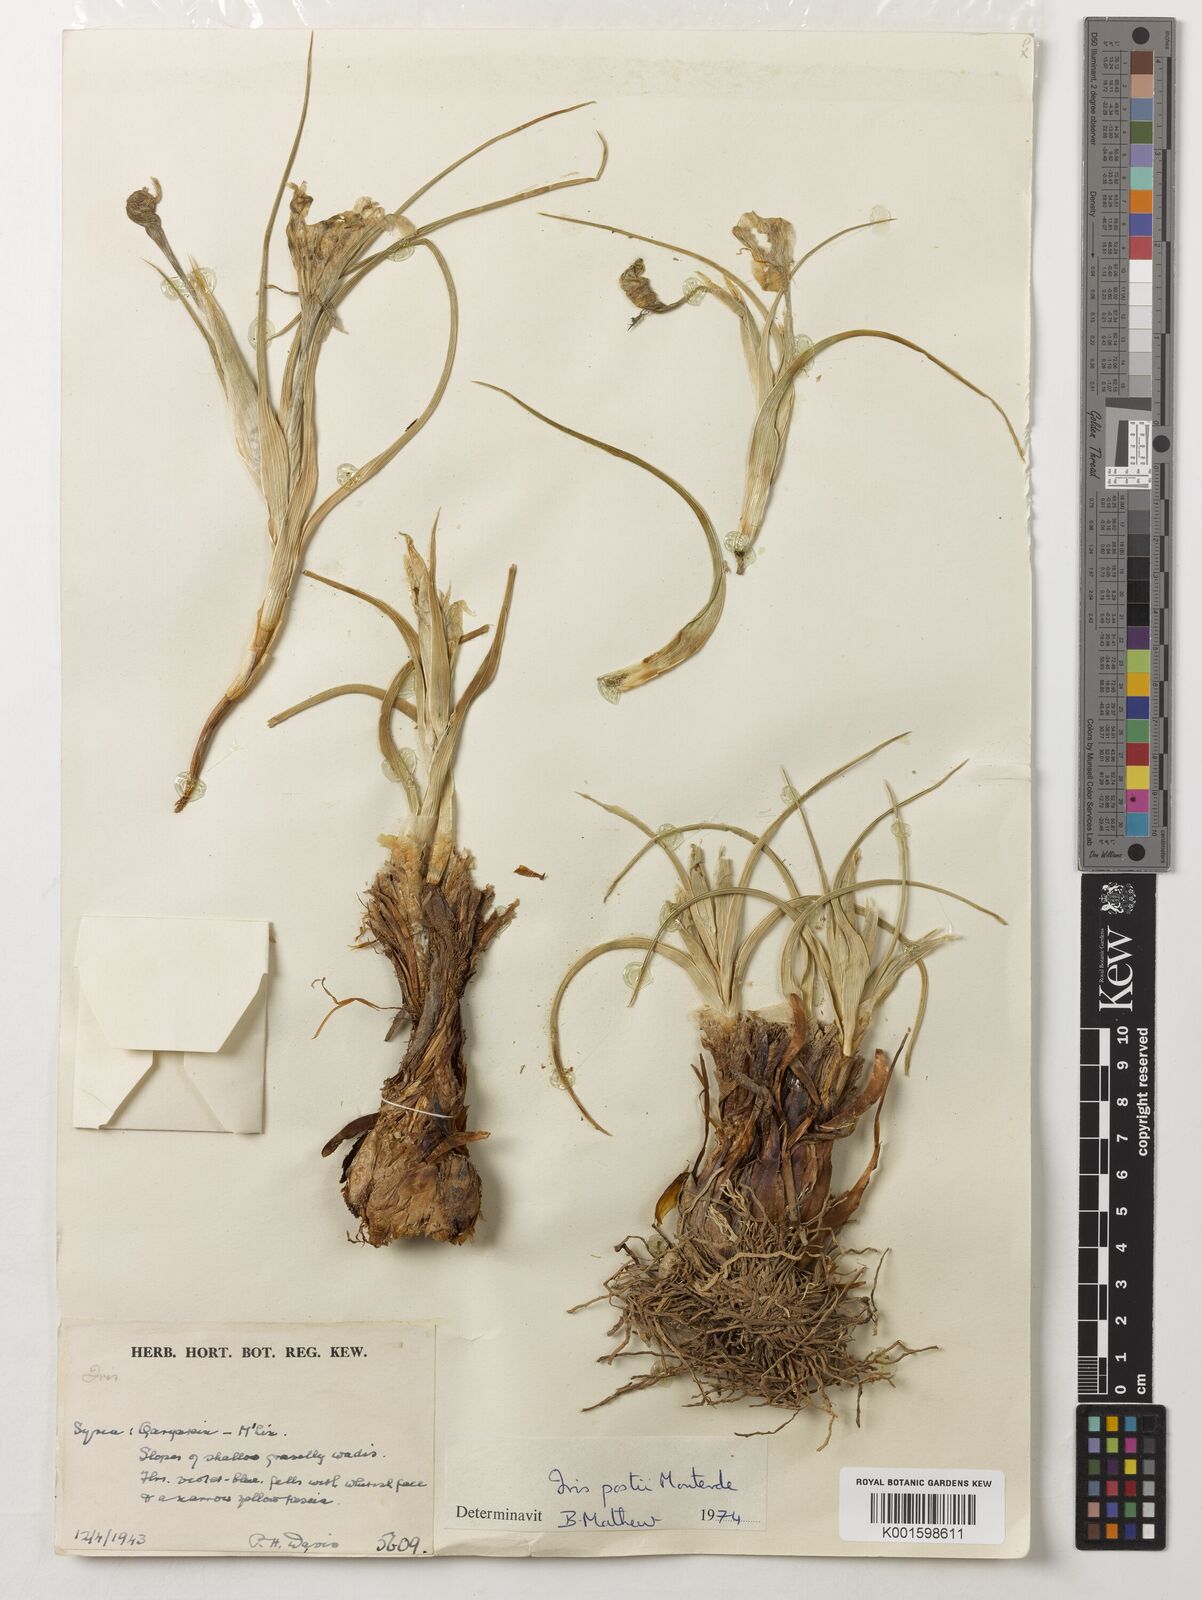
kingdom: Plantae
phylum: Tracheophyta
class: Liliopsida
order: Asparagales
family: Iridaceae
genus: Iris
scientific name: Iris postii
